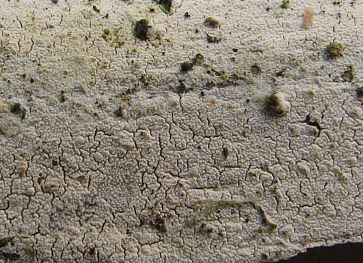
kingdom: Fungi
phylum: Basidiomycota
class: Agaricomycetes
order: Corticiales
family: Corticiaceae
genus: Lyomyces
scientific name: Lyomyces crustosus
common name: vortet hyldehinde
